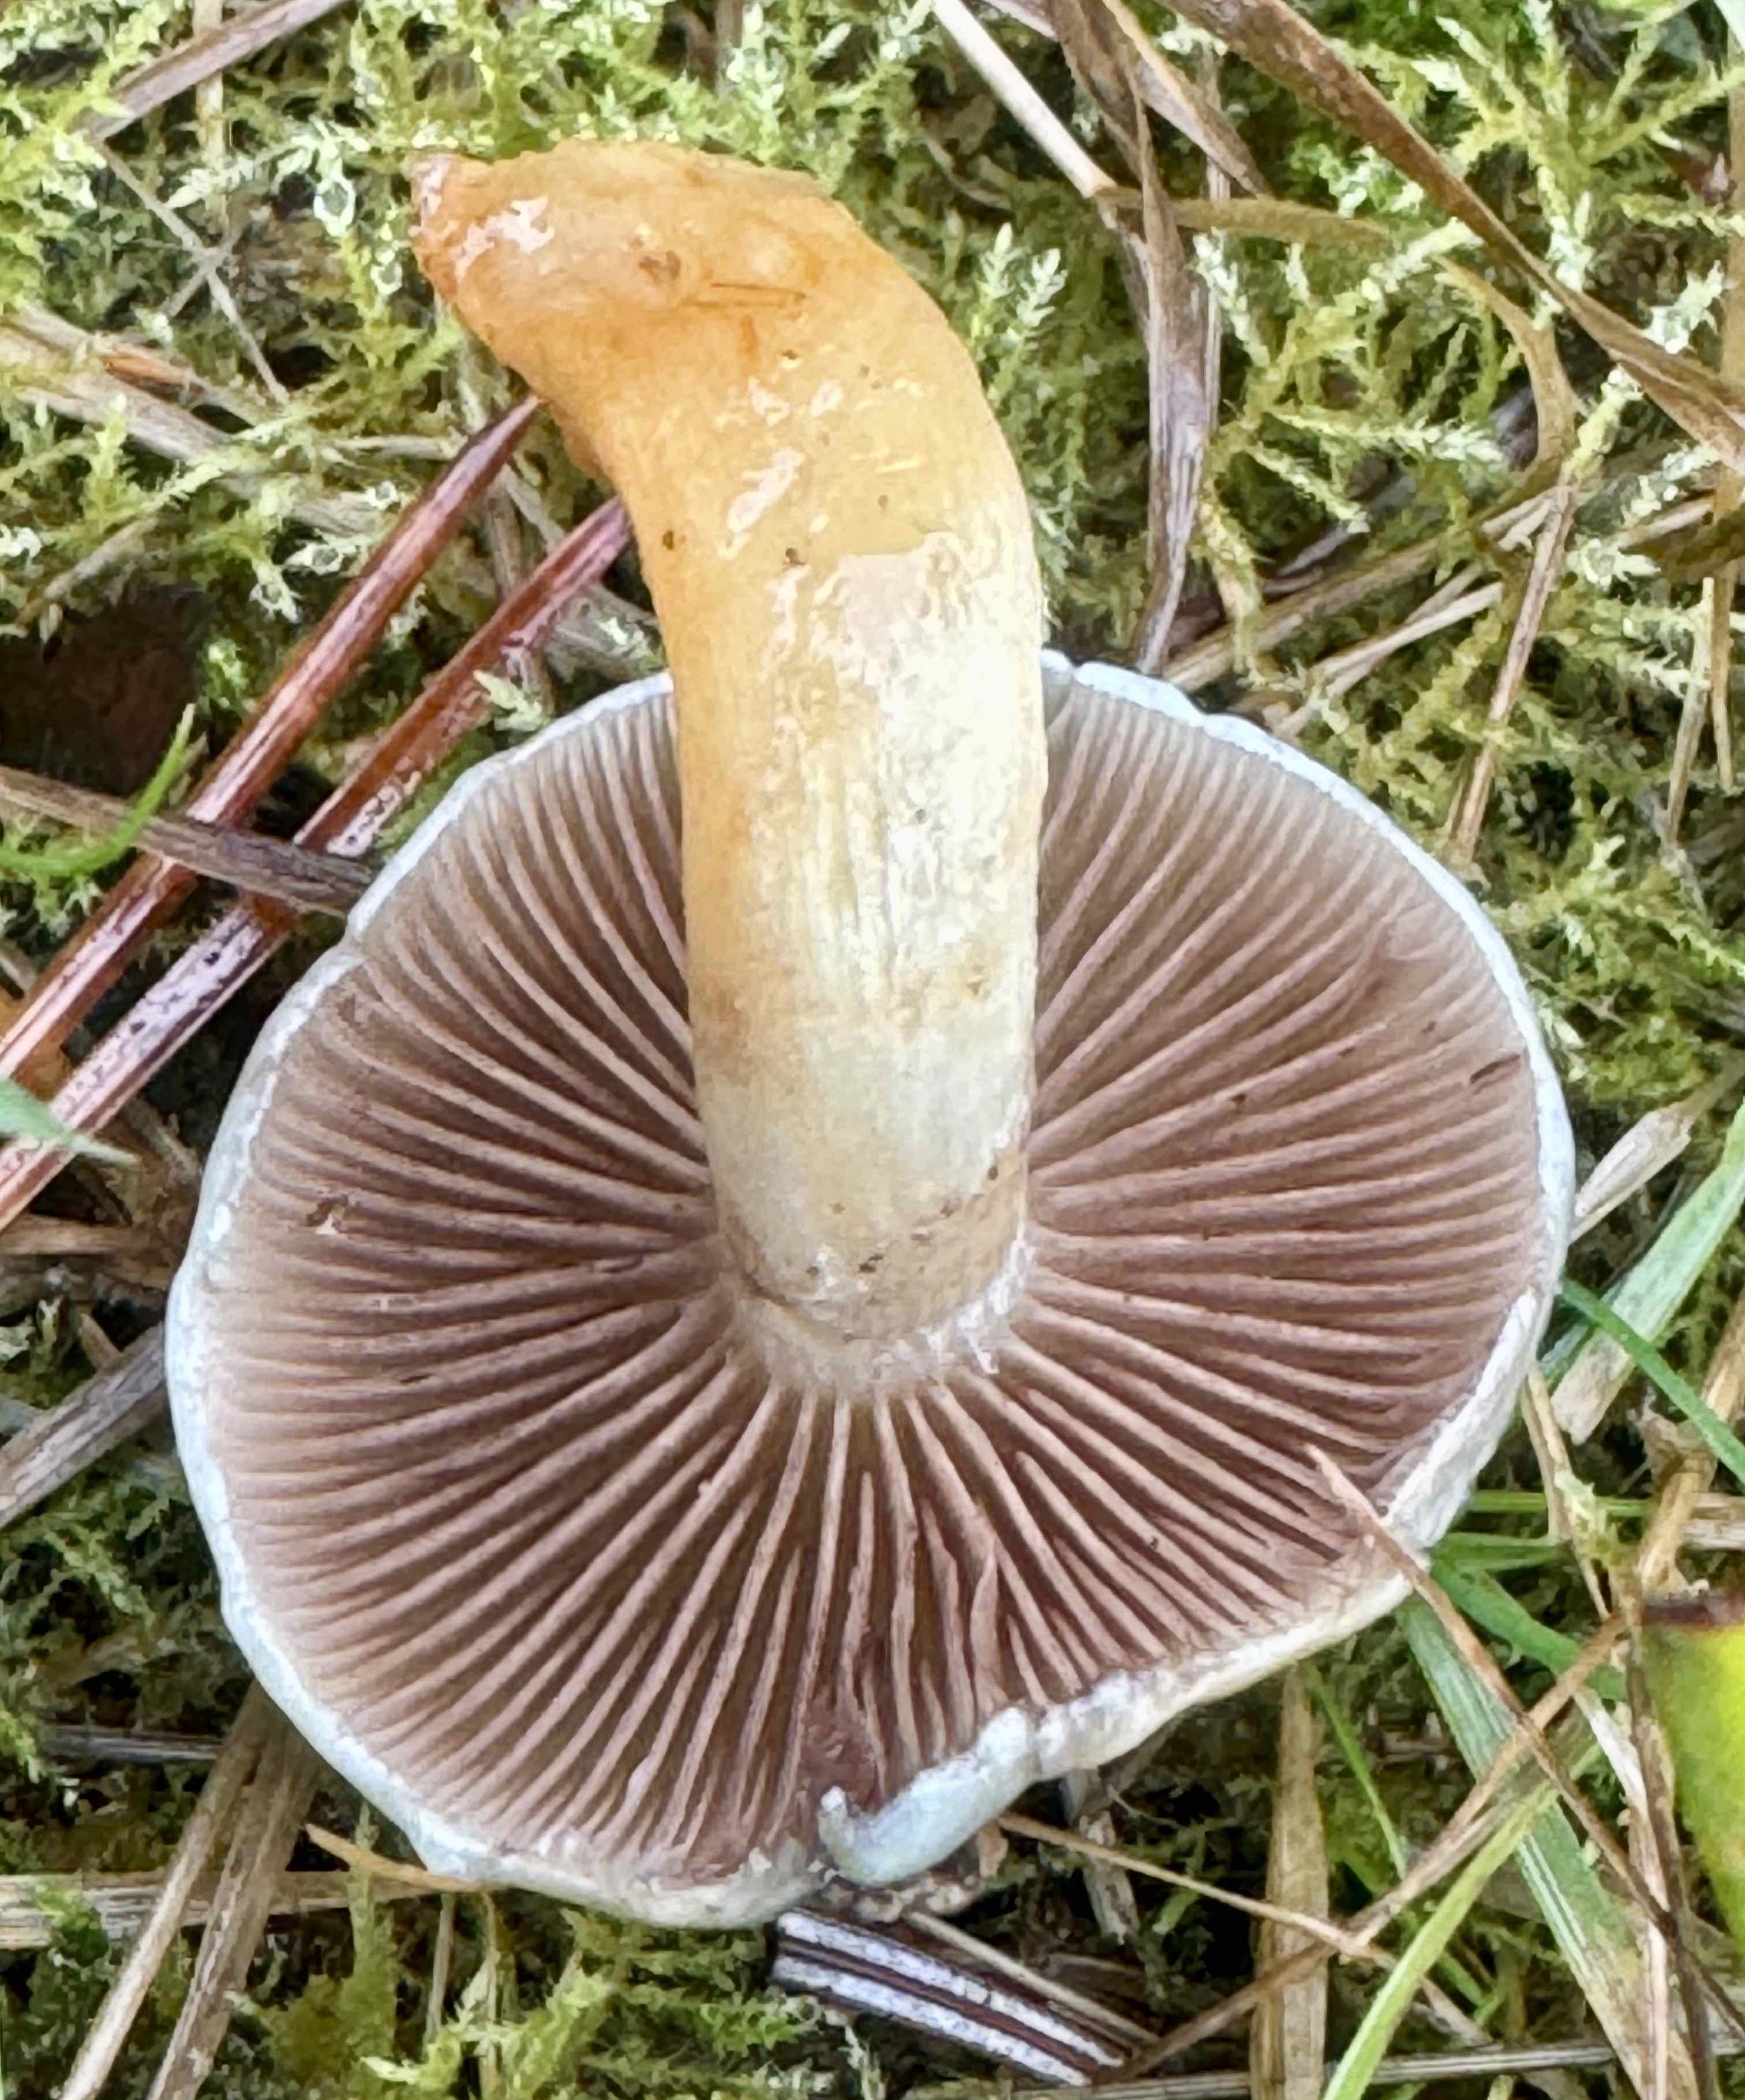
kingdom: Fungi
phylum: Basidiomycota
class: Agaricomycetes
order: Agaricales
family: Strophariaceae
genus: Stropharia
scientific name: Stropharia cyanea
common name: blågrøn bredblad
